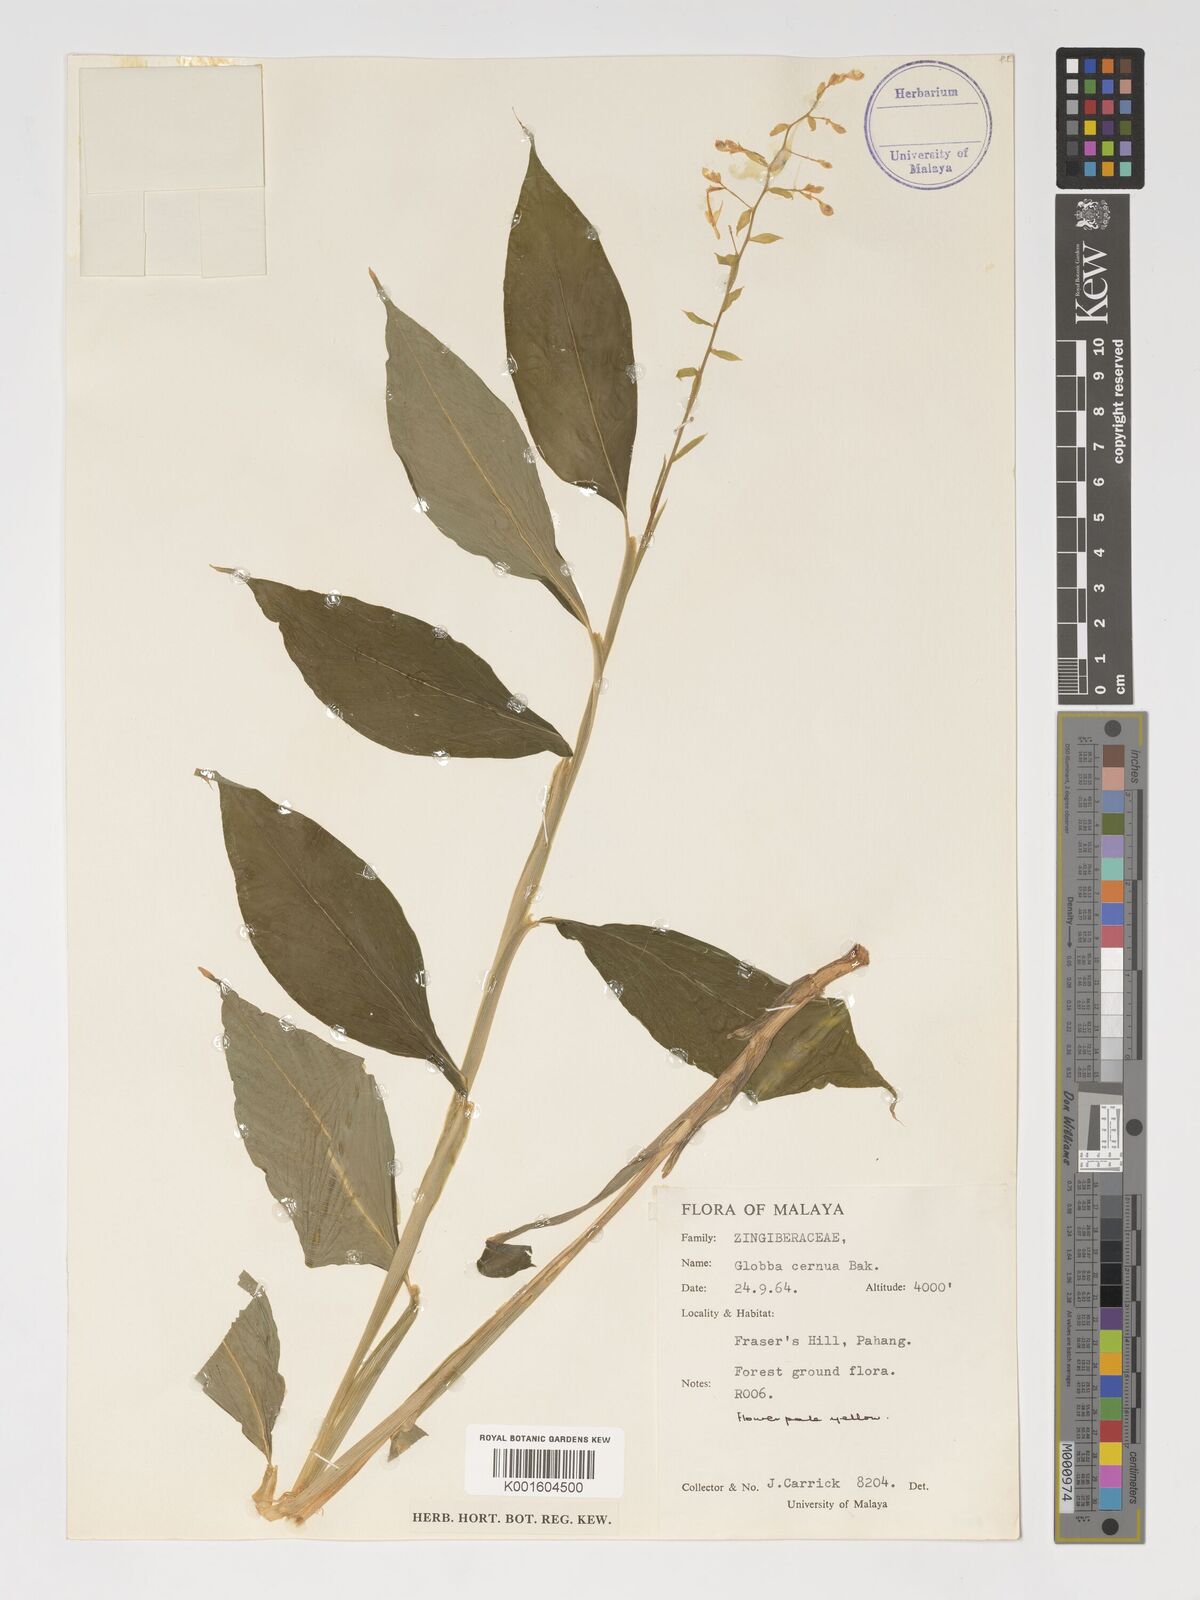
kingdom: Plantae
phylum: Tracheophyta
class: Liliopsida
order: Zingiberales
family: Zingiberaceae
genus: Globba
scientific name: Globba cernua
